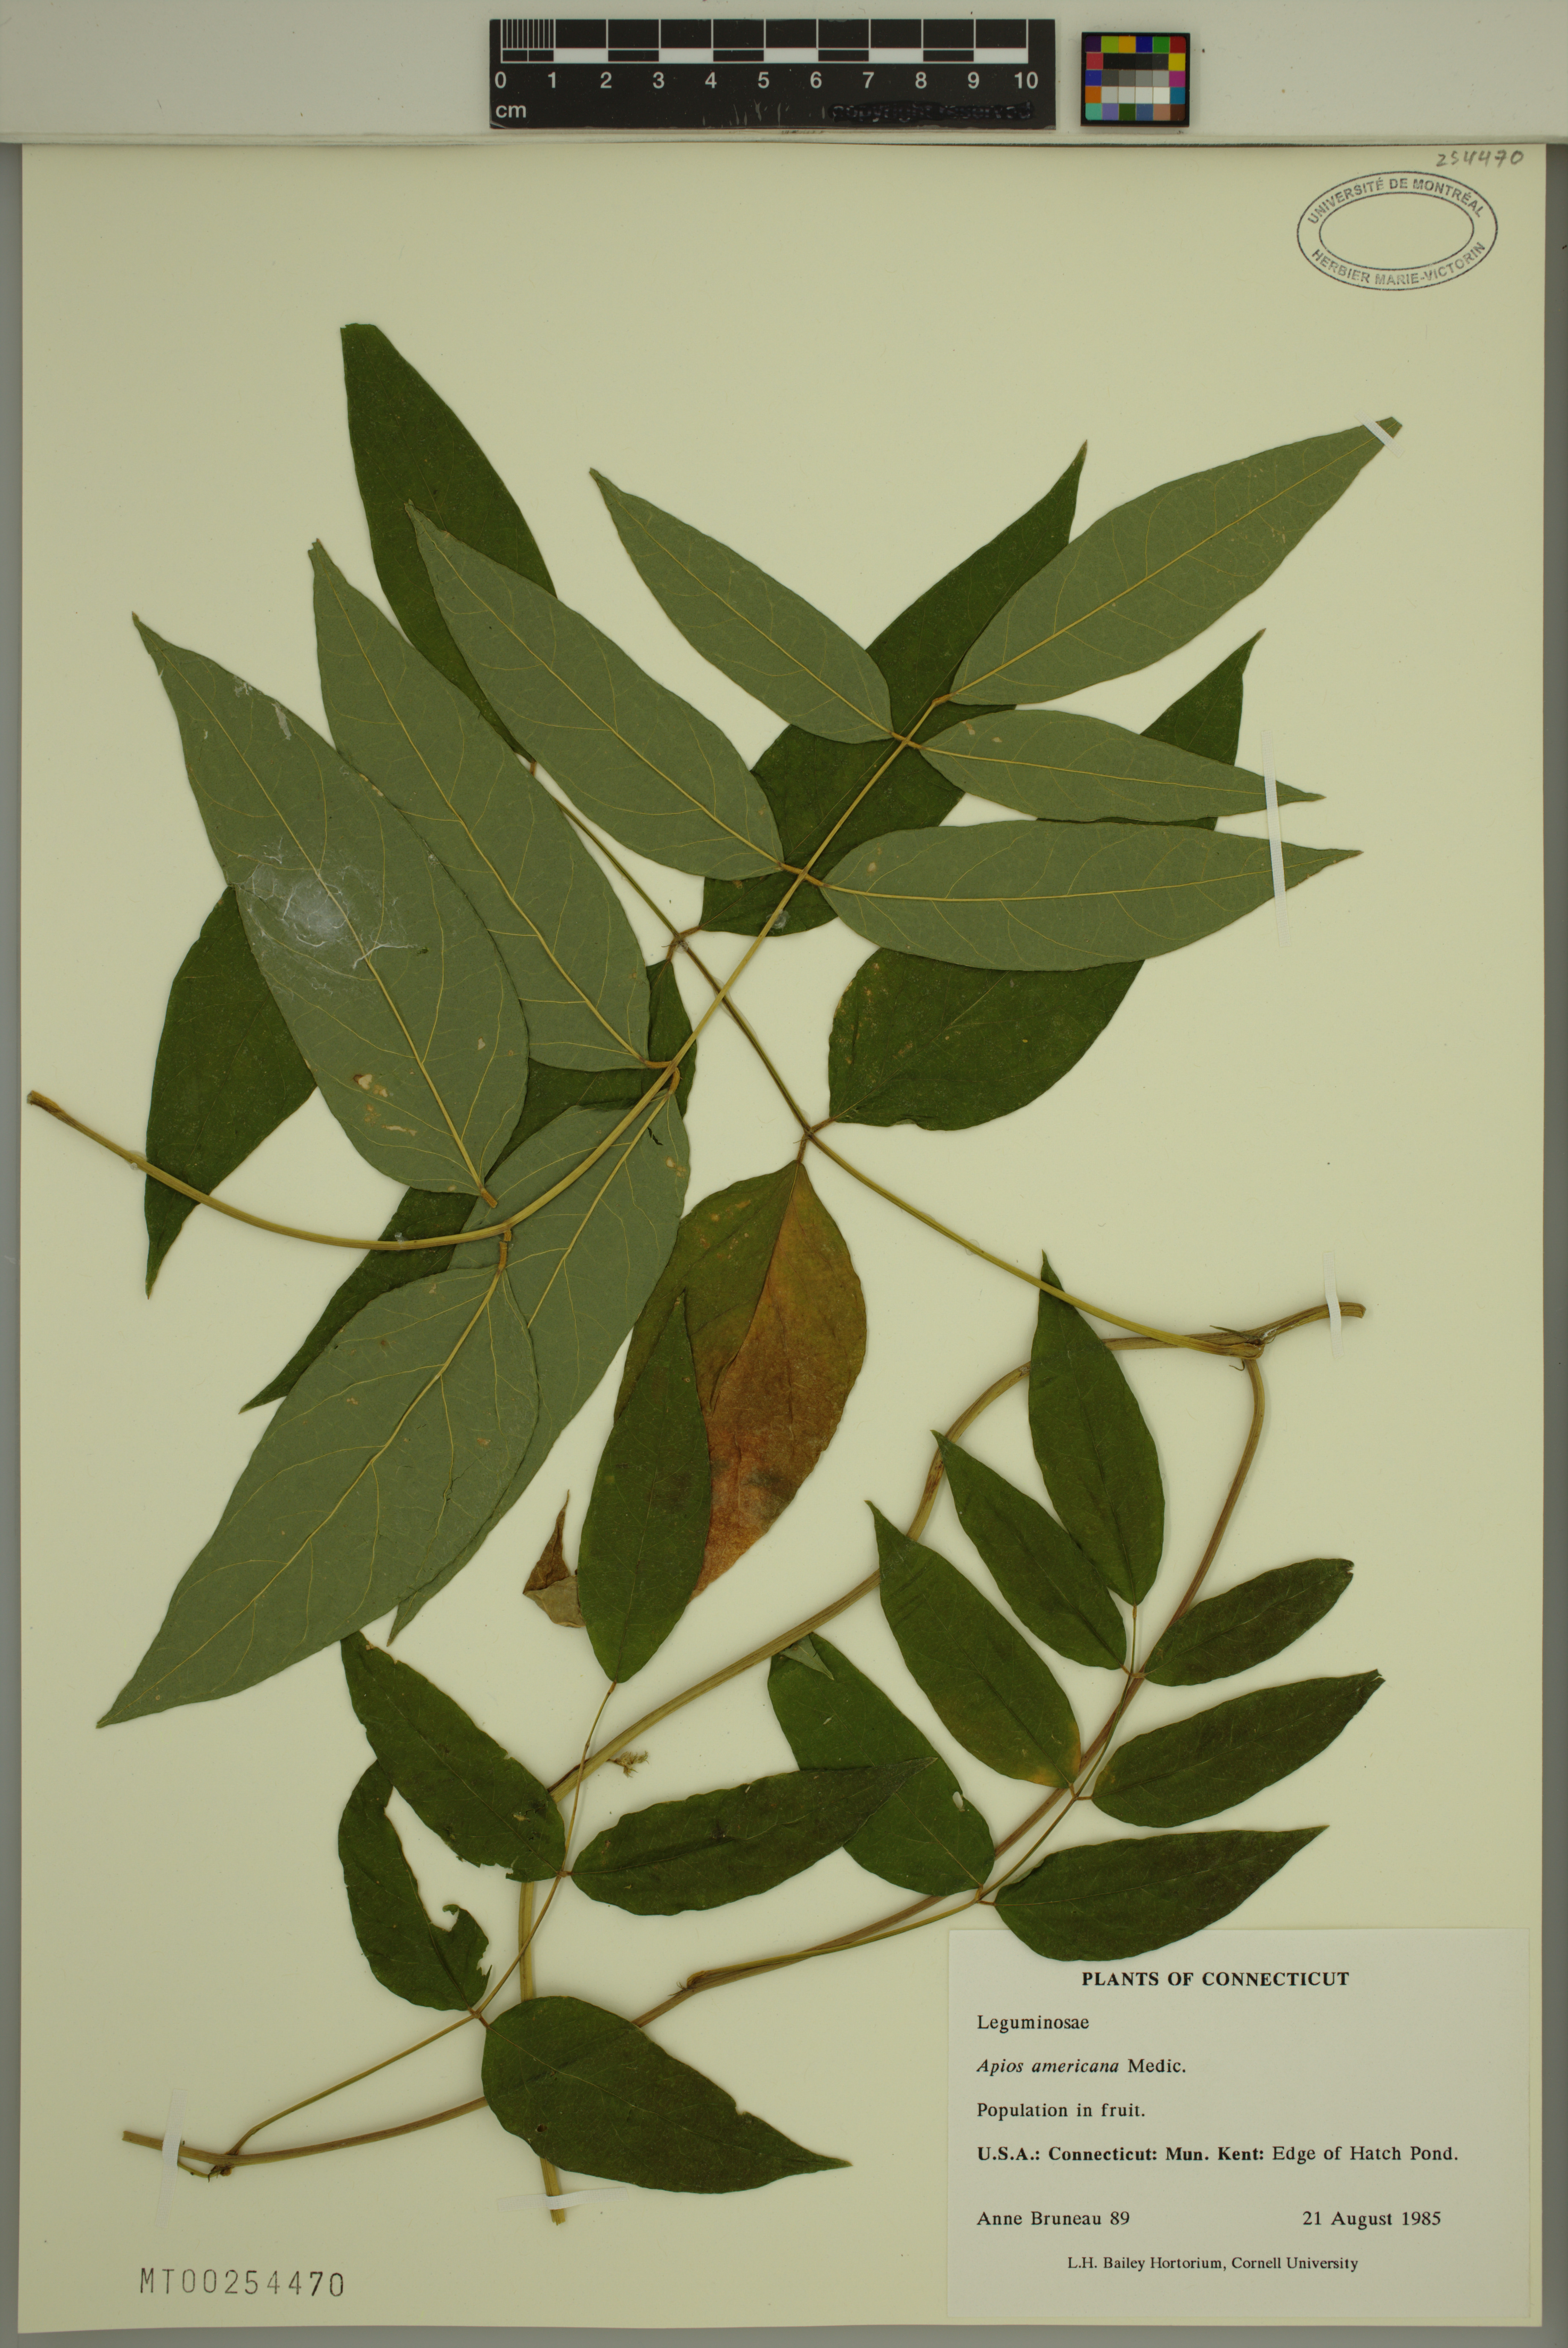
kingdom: Plantae
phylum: Tracheophyta
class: Magnoliopsida
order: Fabales
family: Fabaceae
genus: Apios
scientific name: Apios americana
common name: American potato-bean
